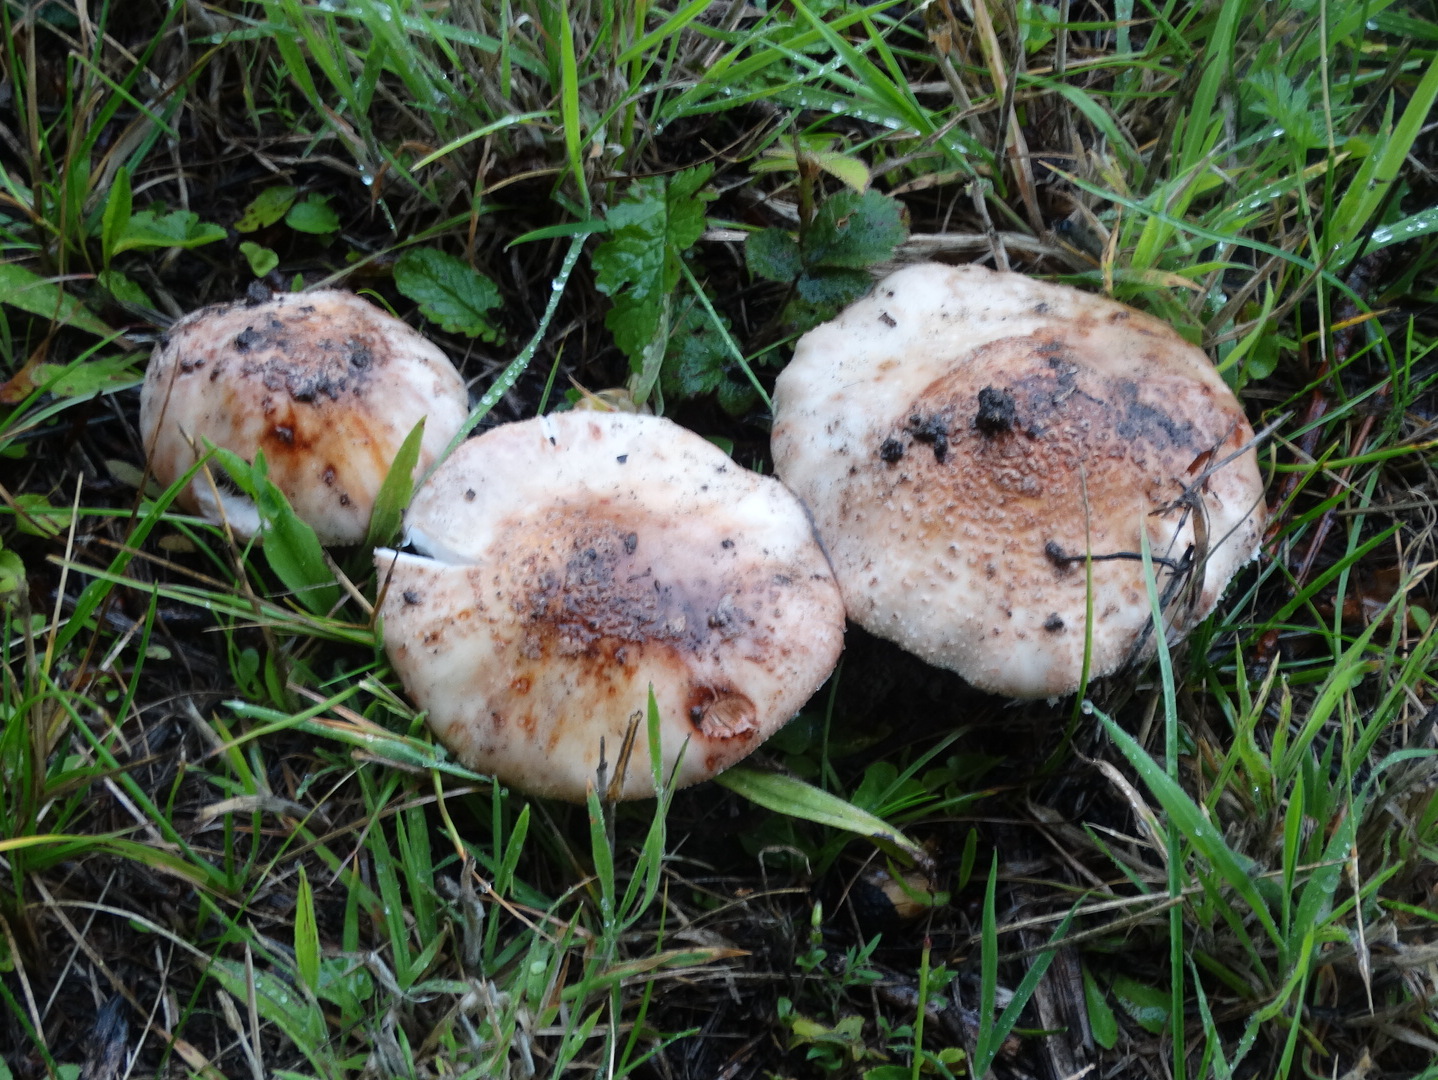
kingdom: Fungi
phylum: Basidiomycota
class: Agaricomycetes
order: Agaricales
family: Amanitaceae
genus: Amanita
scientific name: Amanita rubescens
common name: rødmende fluesvamp
